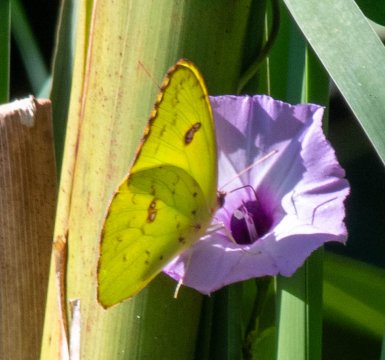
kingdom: Animalia
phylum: Arthropoda
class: Insecta
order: Lepidoptera
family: Pieridae
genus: Phoebis
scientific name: Phoebis sennae
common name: Cloudless Sulphur
